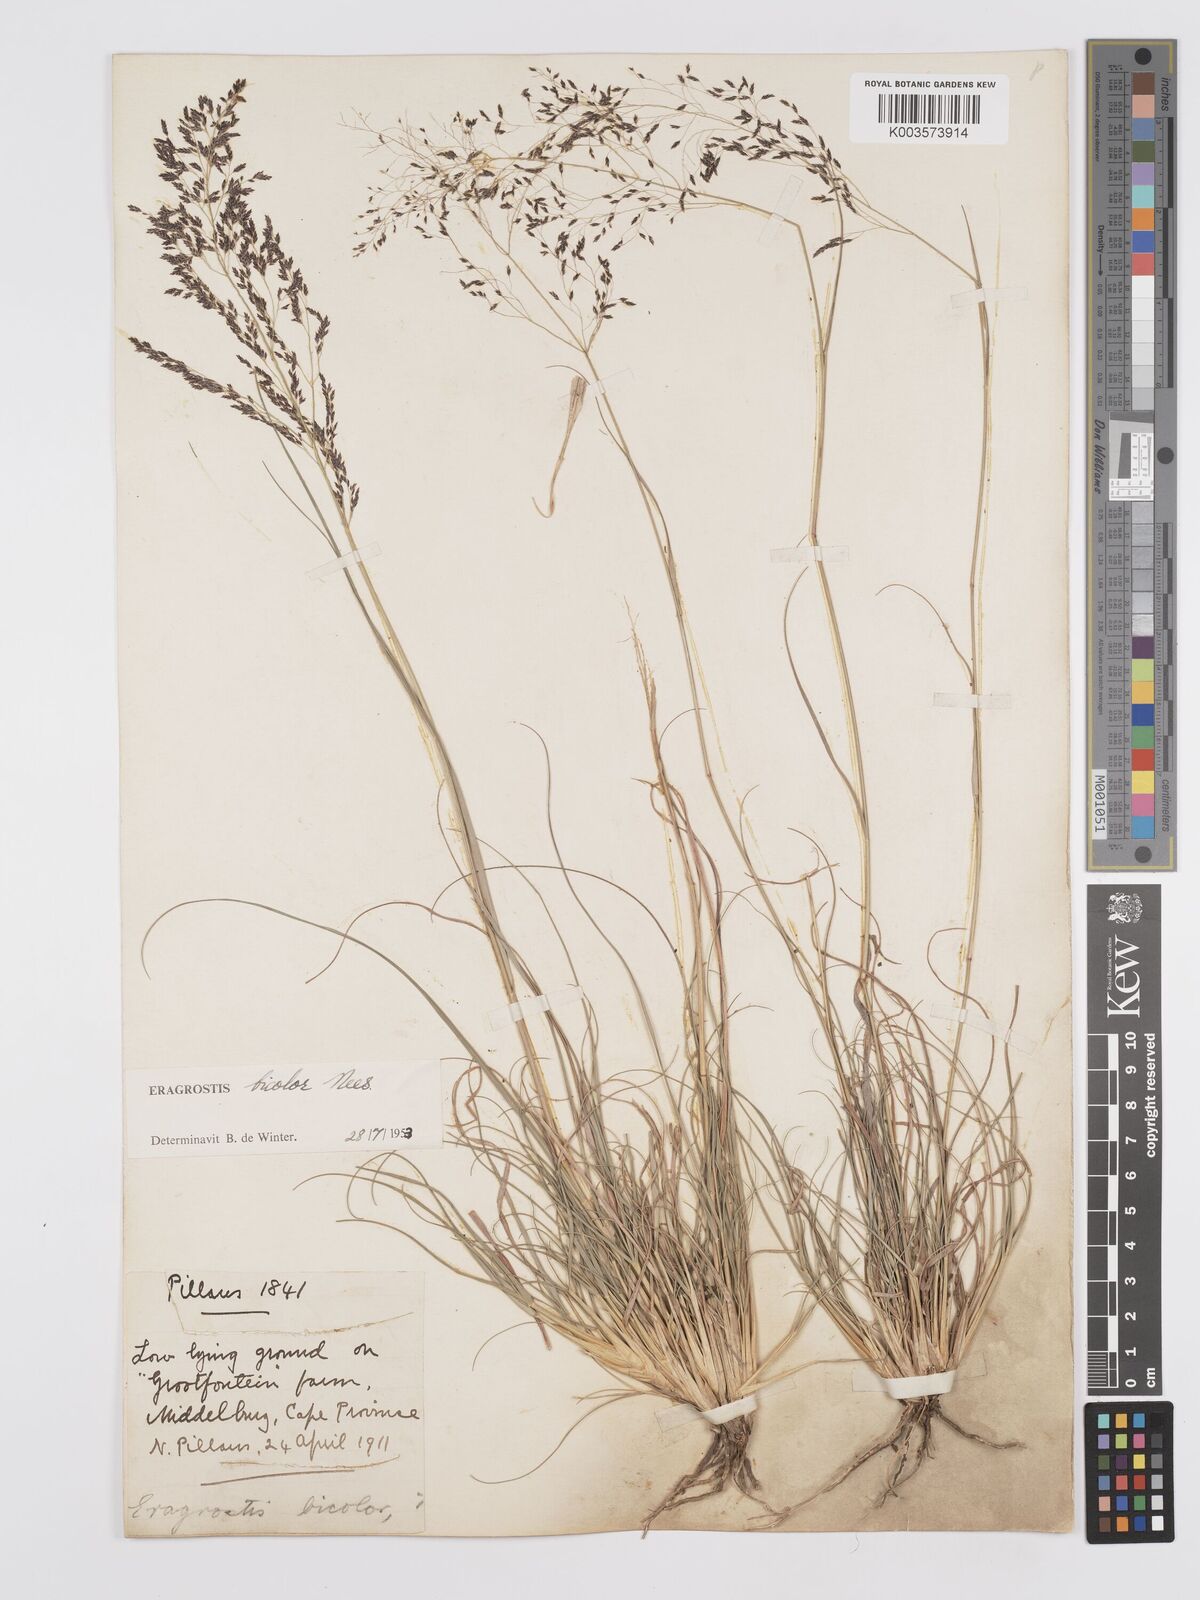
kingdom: Plantae
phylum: Tracheophyta
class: Liliopsida
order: Poales
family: Poaceae
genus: Eragrostis
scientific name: Eragrostis
